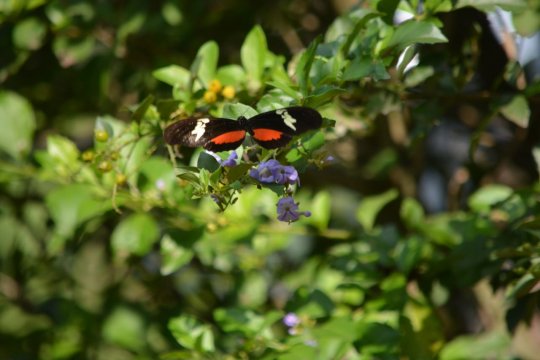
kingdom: Animalia
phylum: Arthropoda
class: Insecta
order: Lepidoptera
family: Nymphalidae
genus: Heliconius
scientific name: Heliconius erato
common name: Erato Heliconian
